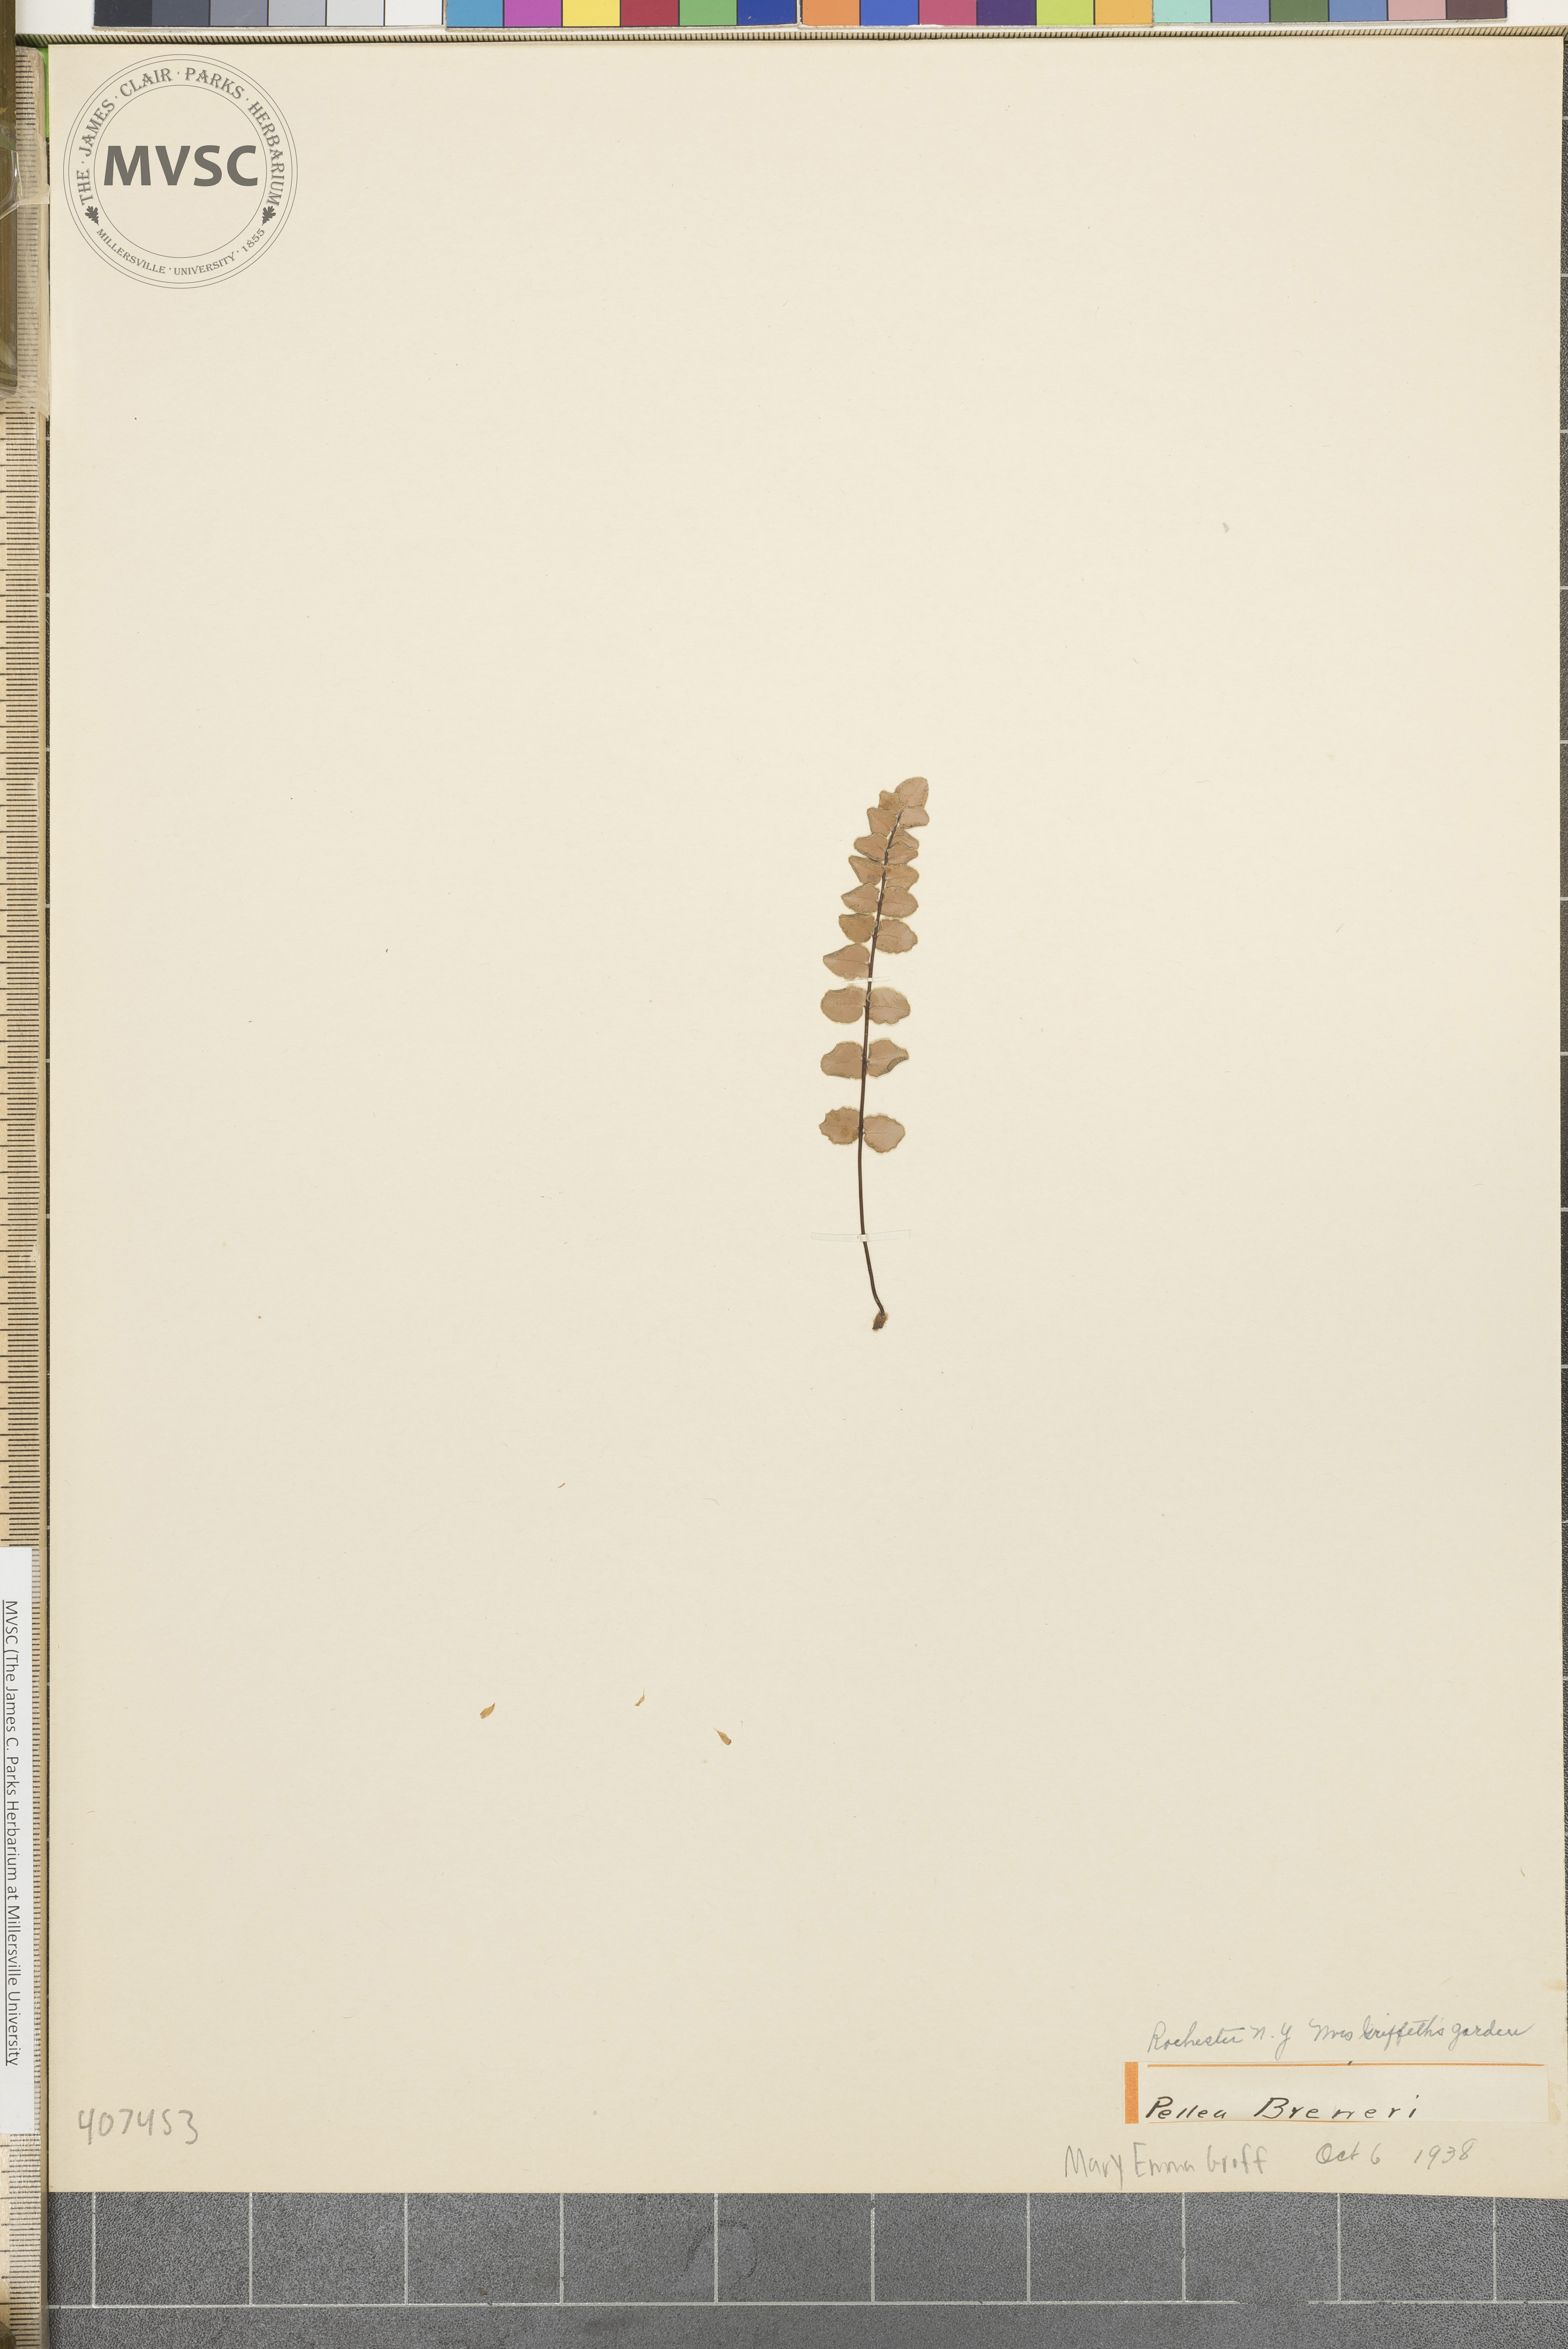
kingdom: Plantae
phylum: Tracheophyta
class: Polypodiopsida
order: Polypodiales
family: Pteridaceae
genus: Pellaea
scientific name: Pellaea breweri
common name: Brewer's cliffbrake
